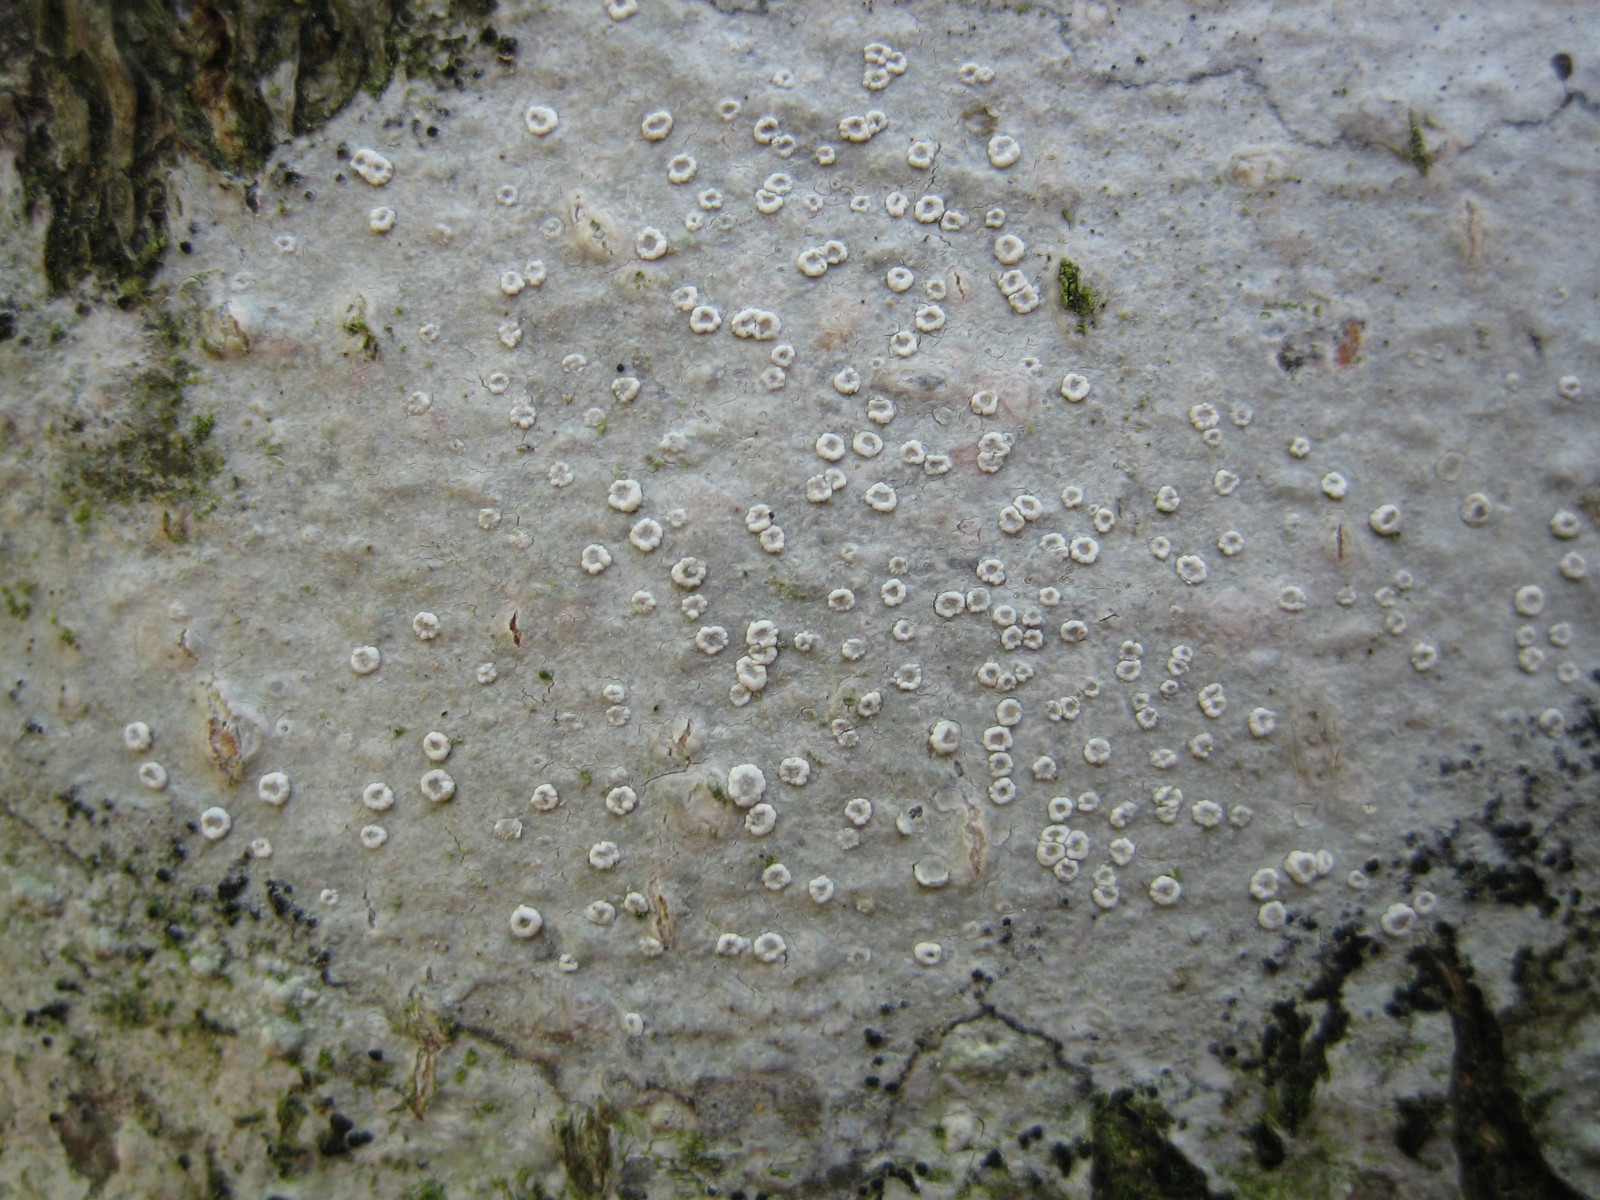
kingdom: Fungi
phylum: Ascomycota
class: Lecanoromycetes
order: Lecanorales
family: Lecanoraceae
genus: Lecanora
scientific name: Lecanora intumescens
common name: filtrandet kantskivelav
